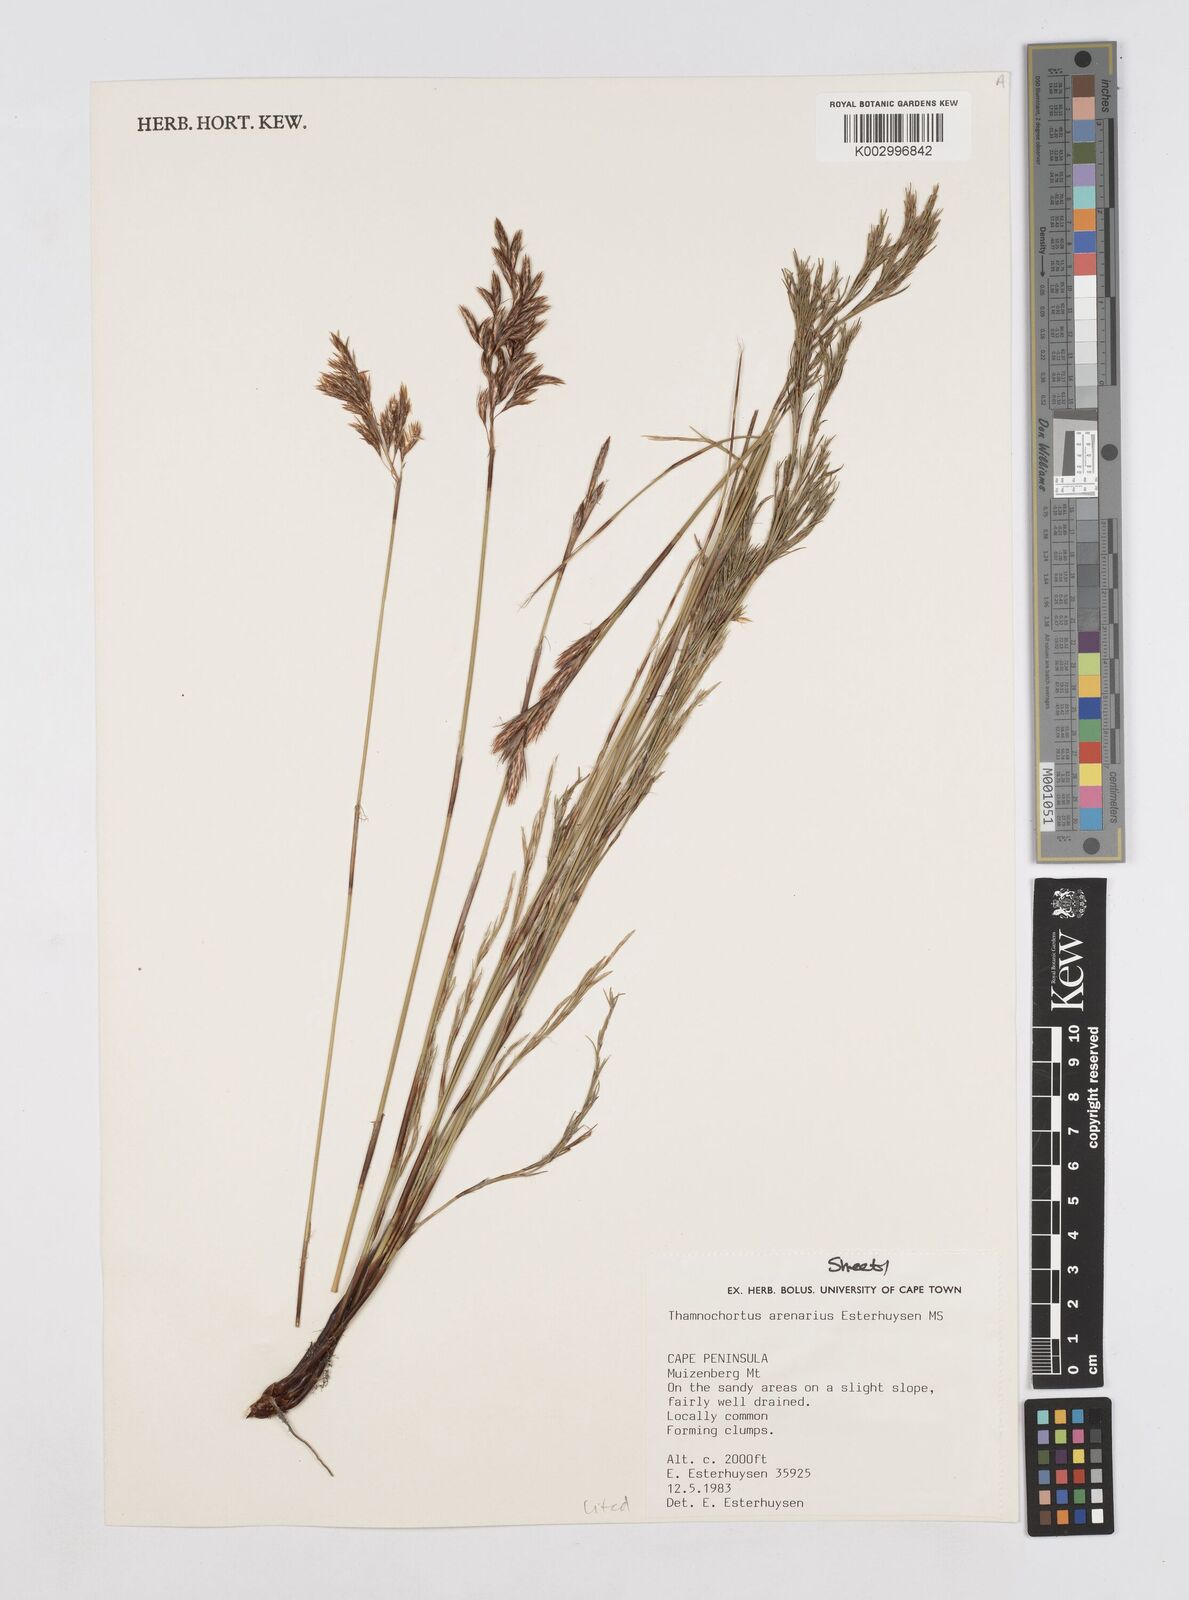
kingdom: Plantae
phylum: Tracheophyta
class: Liliopsida
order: Poales
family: Restionaceae
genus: Thamnochortus
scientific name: Thamnochortus arenarius
